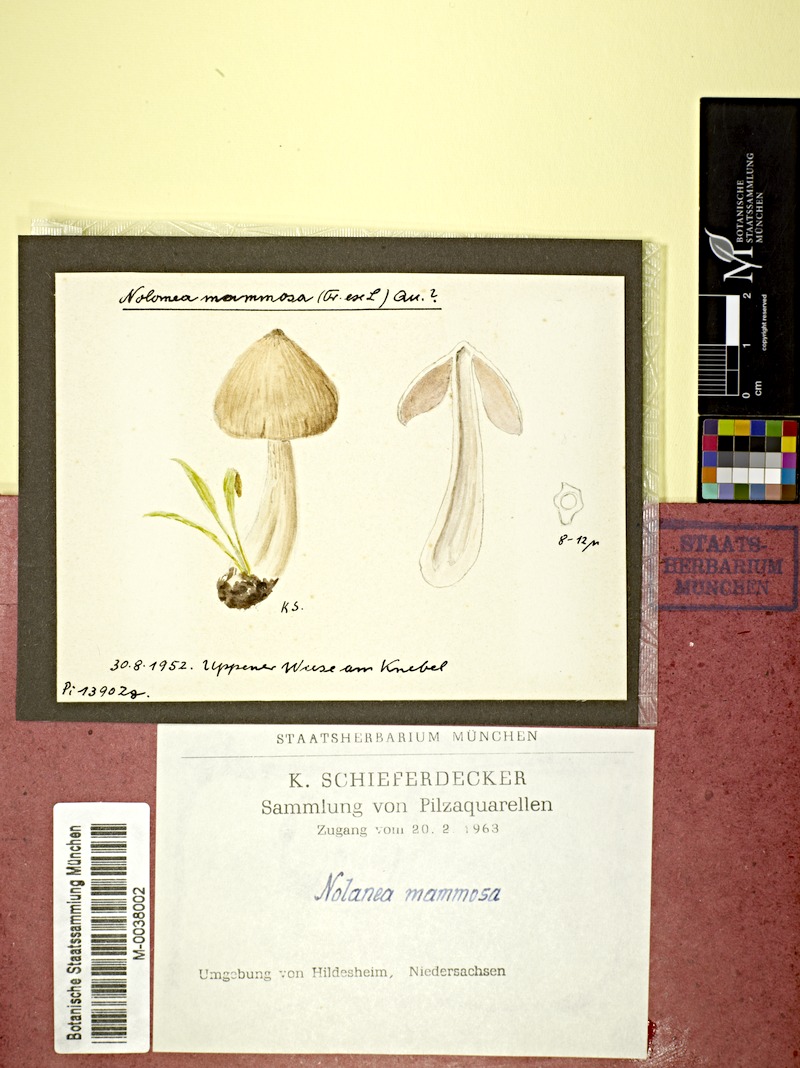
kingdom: Fungi
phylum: Basidiomycota
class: Agaricomycetes
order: Agaricales
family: Entolomataceae
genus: Entoloma
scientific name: Entoloma hirtipes
